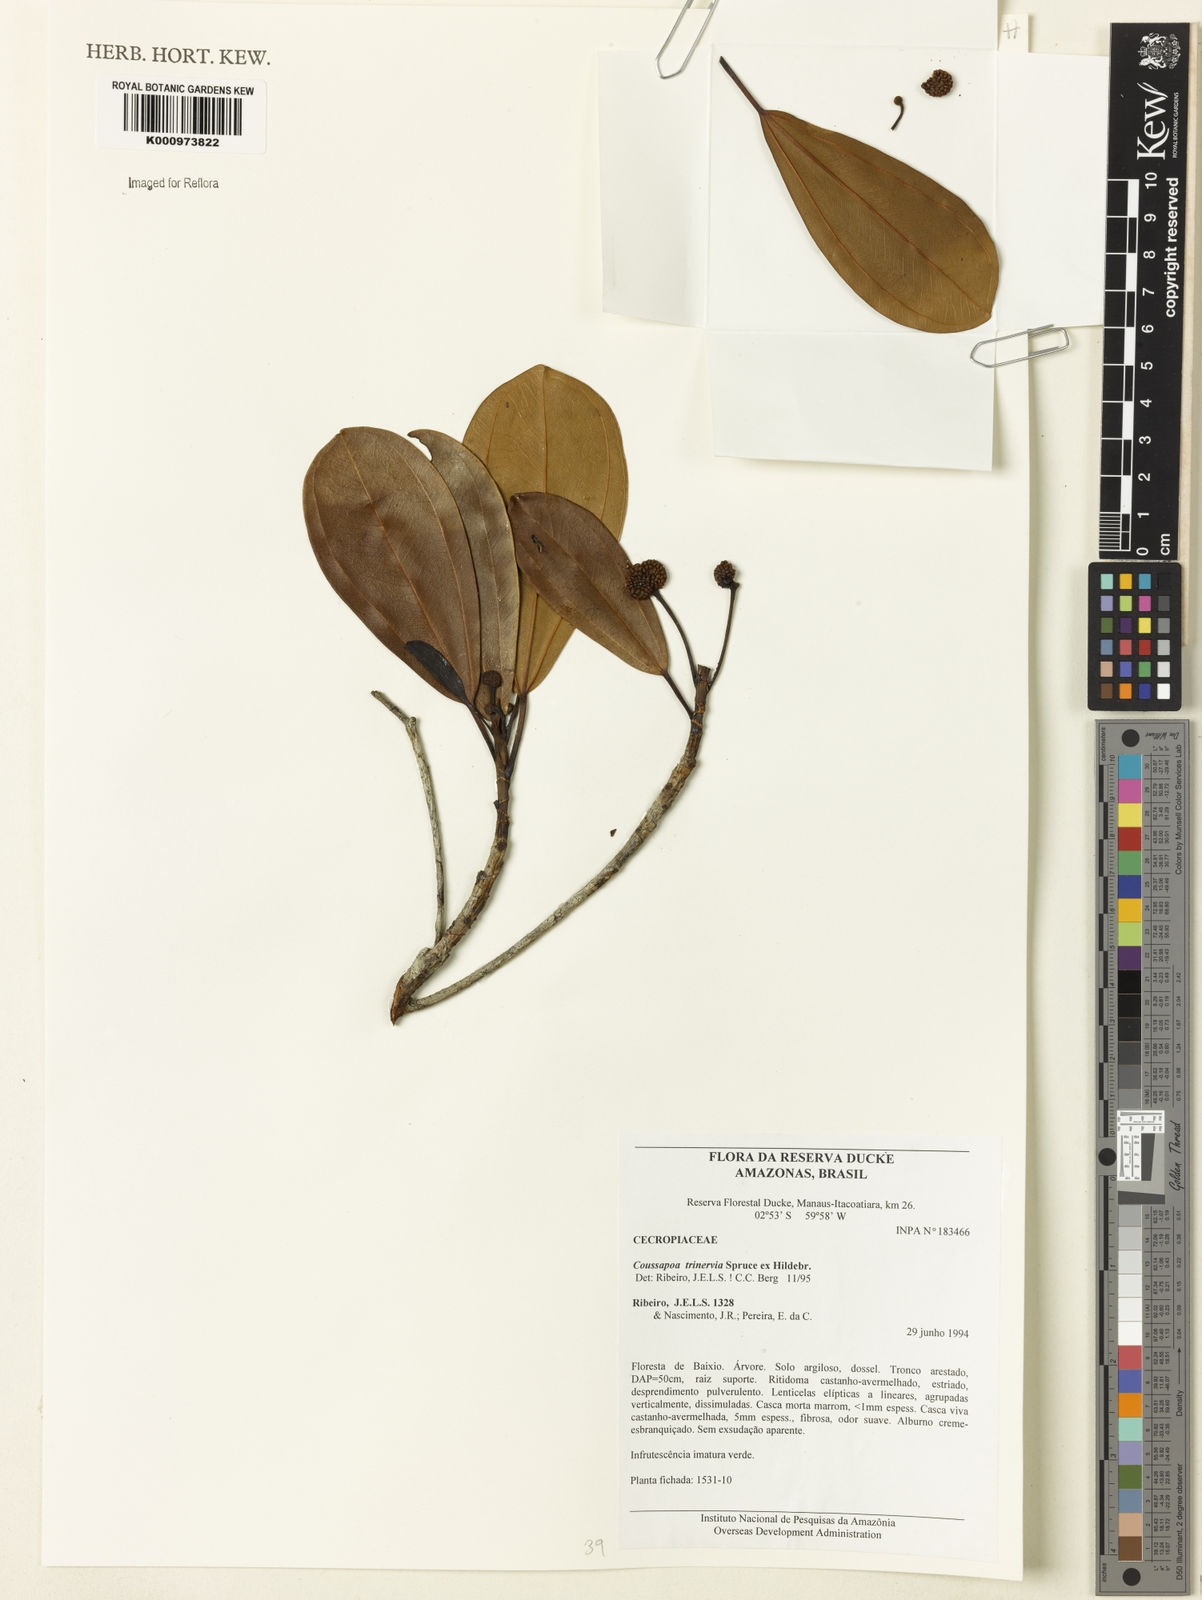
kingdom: Plantae
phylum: Tracheophyta
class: Magnoliopsida
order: Rosales
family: Urticaceae
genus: Coussapoa
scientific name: Coussapoa trinervia
